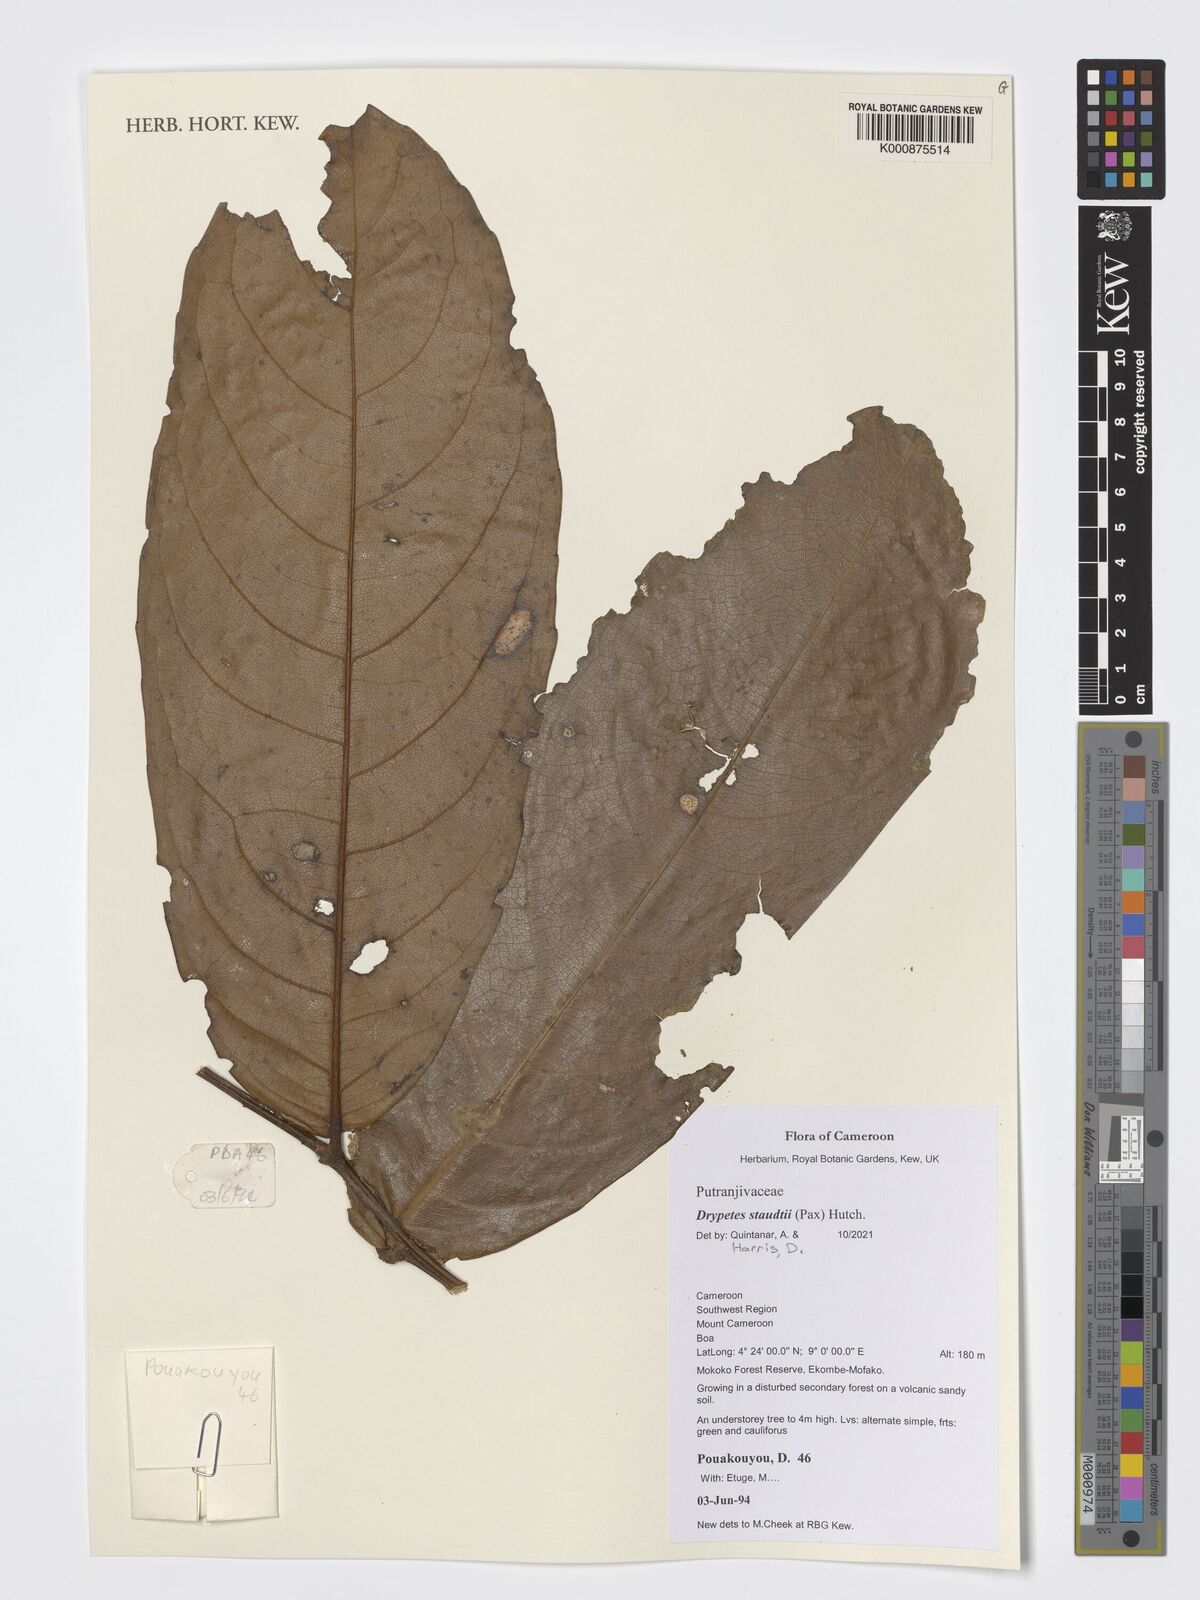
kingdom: Plantae
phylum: Tracheophyta
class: Magnoliopsida
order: Malpighiales
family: Putranjivaceae
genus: Drypetes
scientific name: Drypetes staudtii
